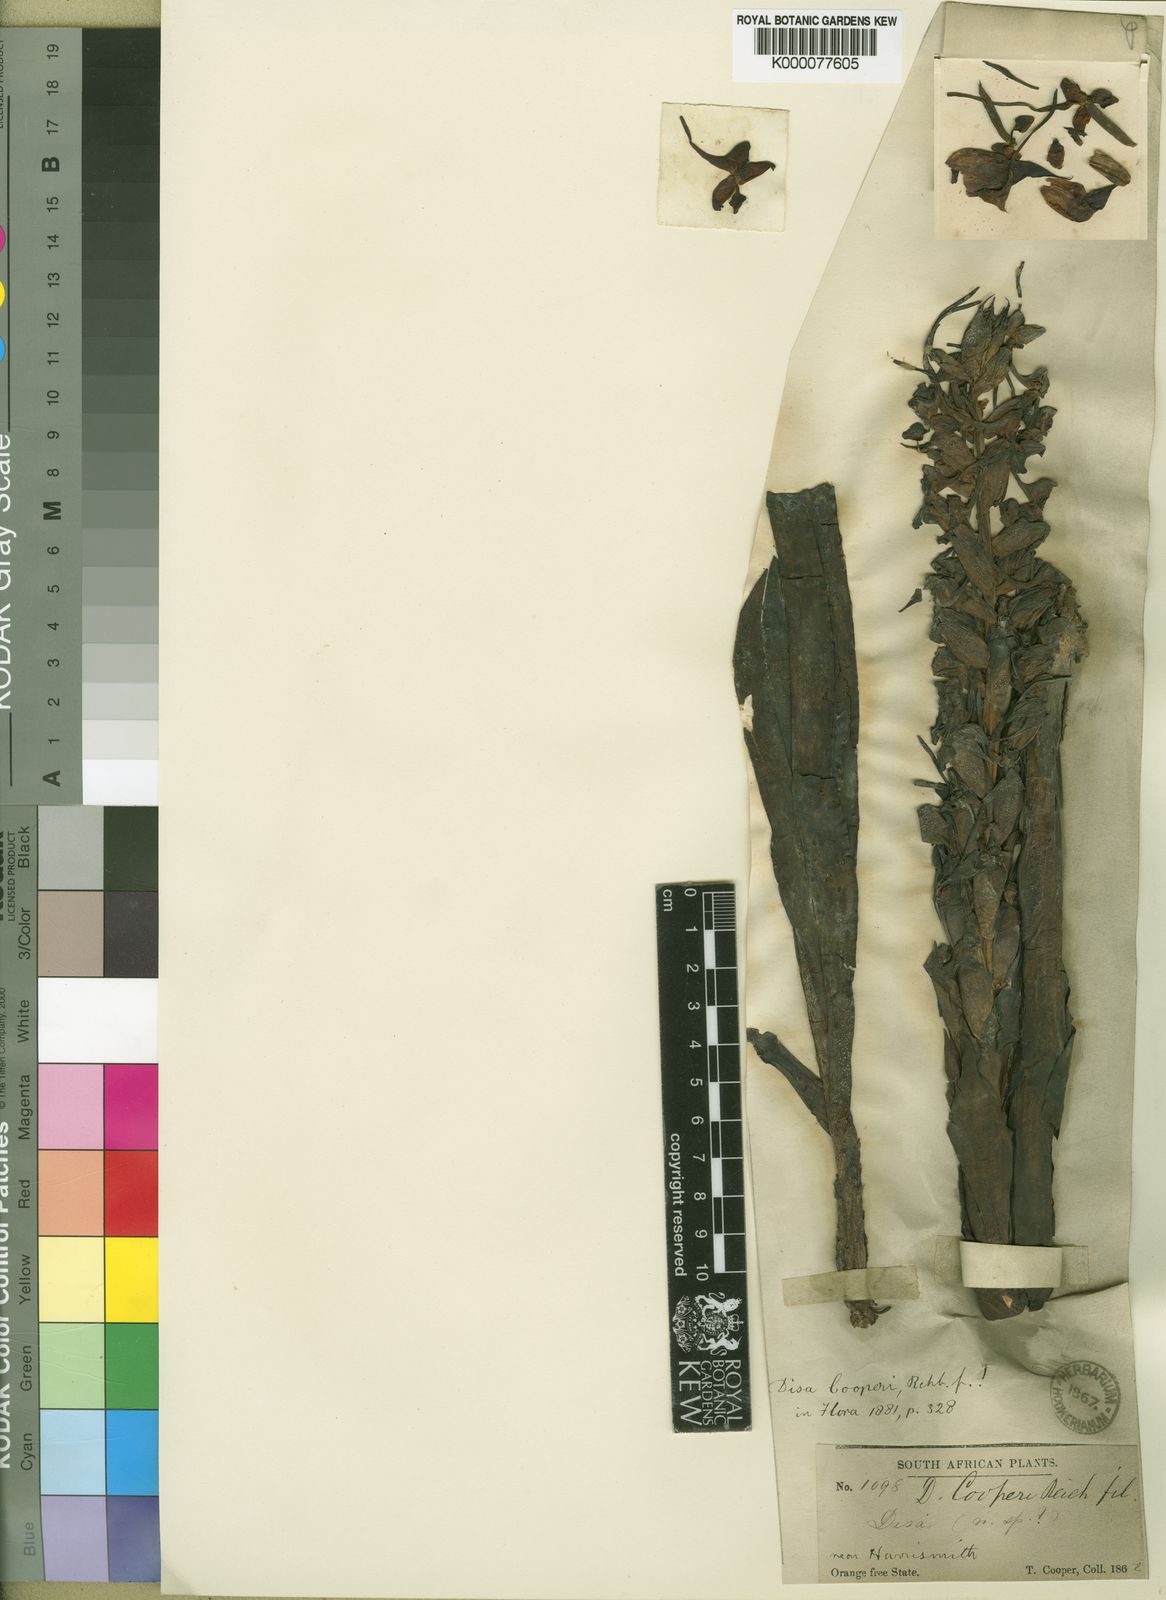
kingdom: Plantae
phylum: Tracheophyta
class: Liliopsida
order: Asparagales
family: Orchidaceae
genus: Disa
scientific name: Disa cooperi
